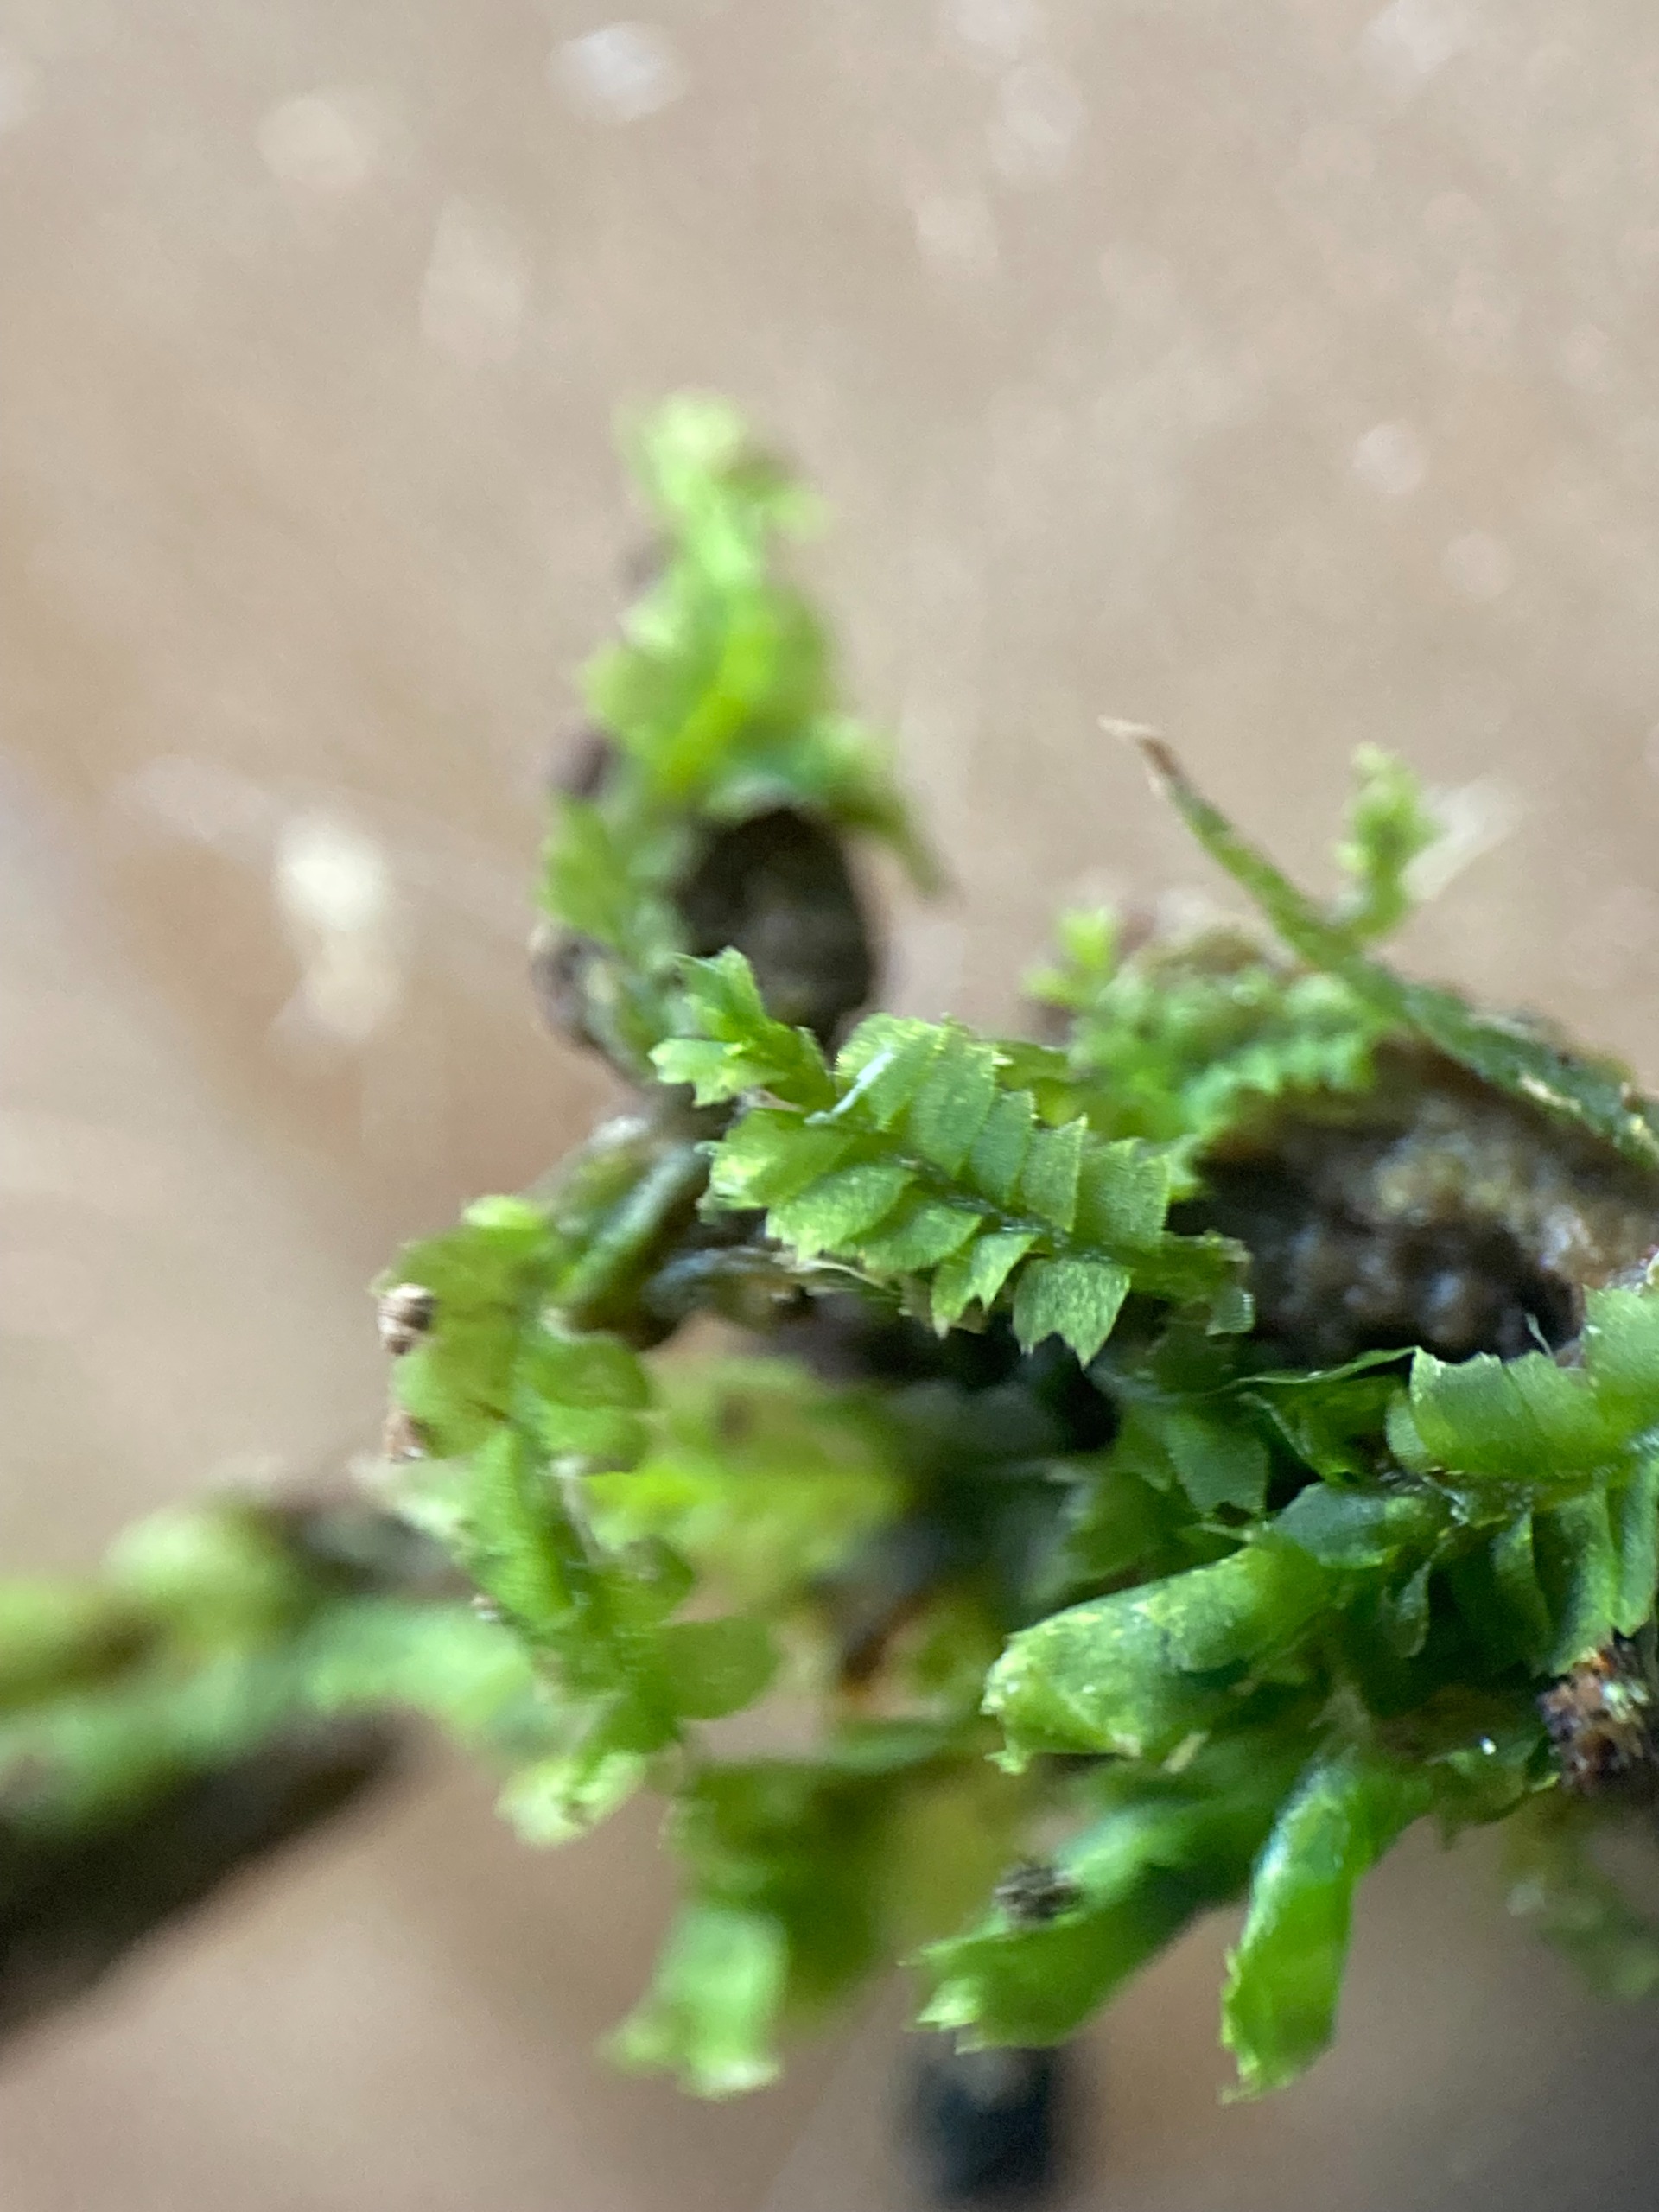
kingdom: Plantae
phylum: Marchantiophyta
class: Jungermanniopsida
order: Jungermanniales
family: Lophocoleaceae
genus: Lophocolea
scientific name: Lophocolea heterophylla
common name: Forskelligbladet kamsvøb
